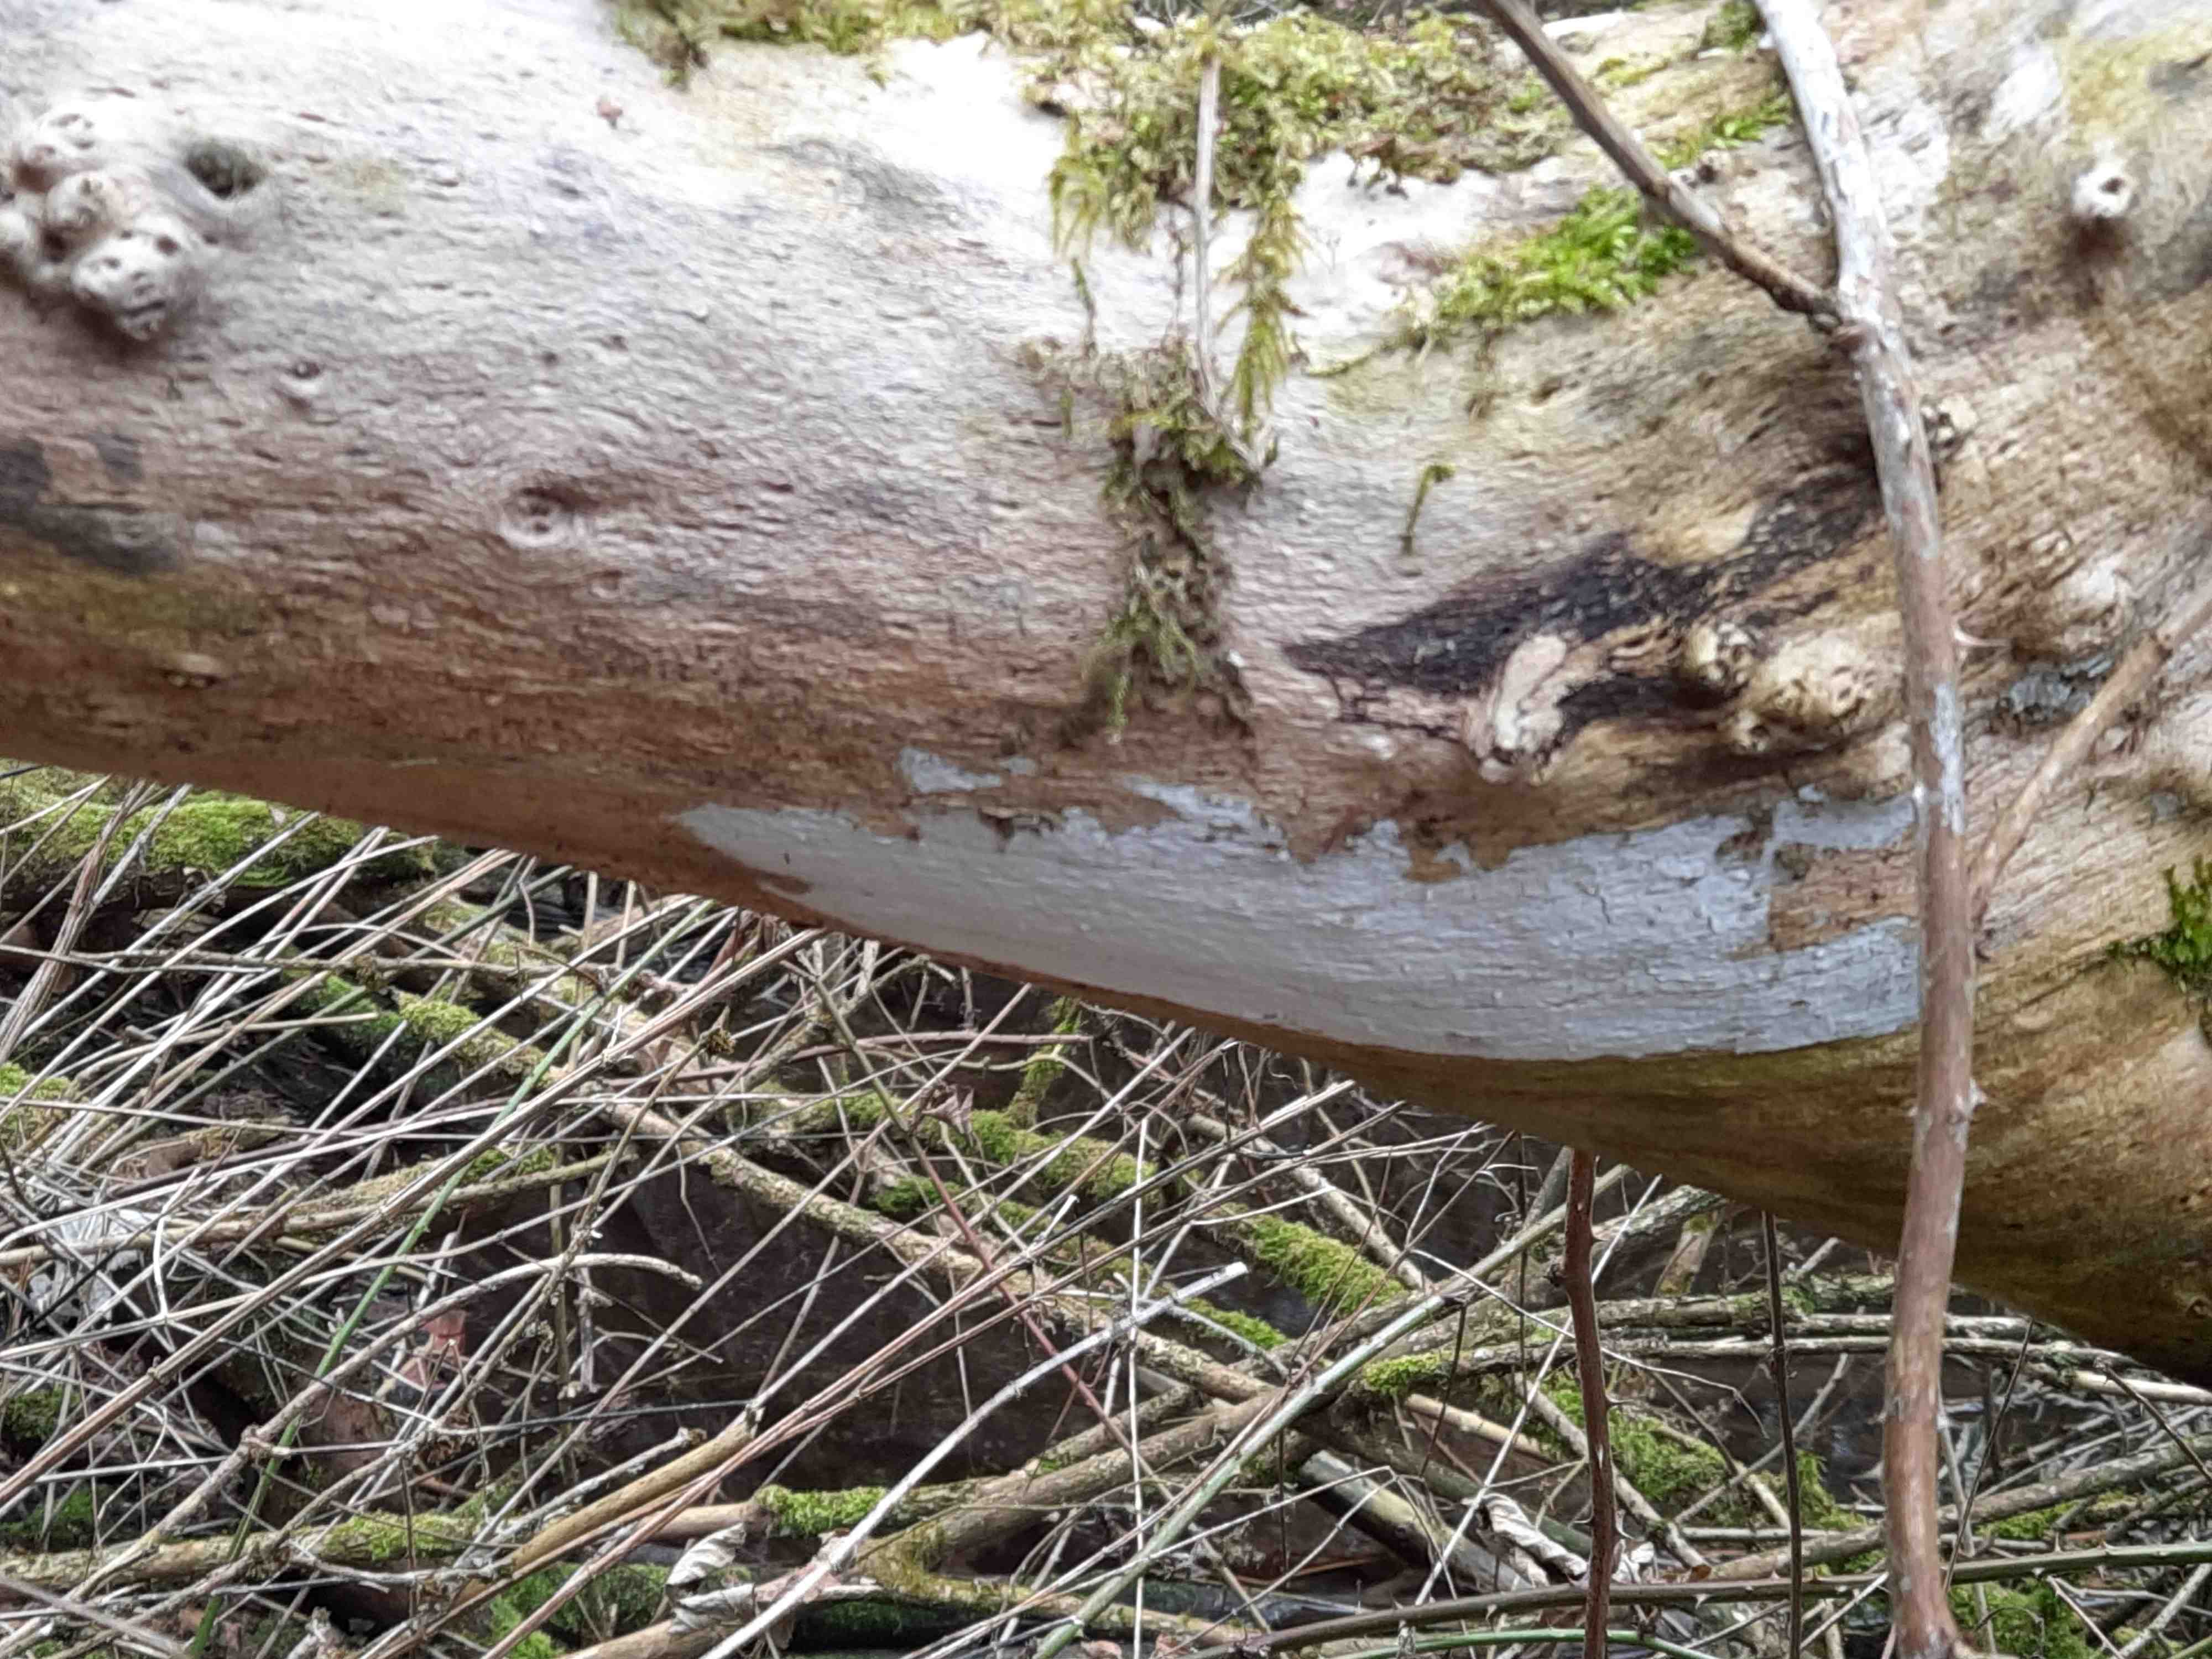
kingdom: Fungi
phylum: Basidiomycota
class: Agaricomycetes
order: Corticiales
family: Corticiaceae
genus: Lyomyces
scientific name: Lyomyces sambuci
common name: almindelig hyldehinde
